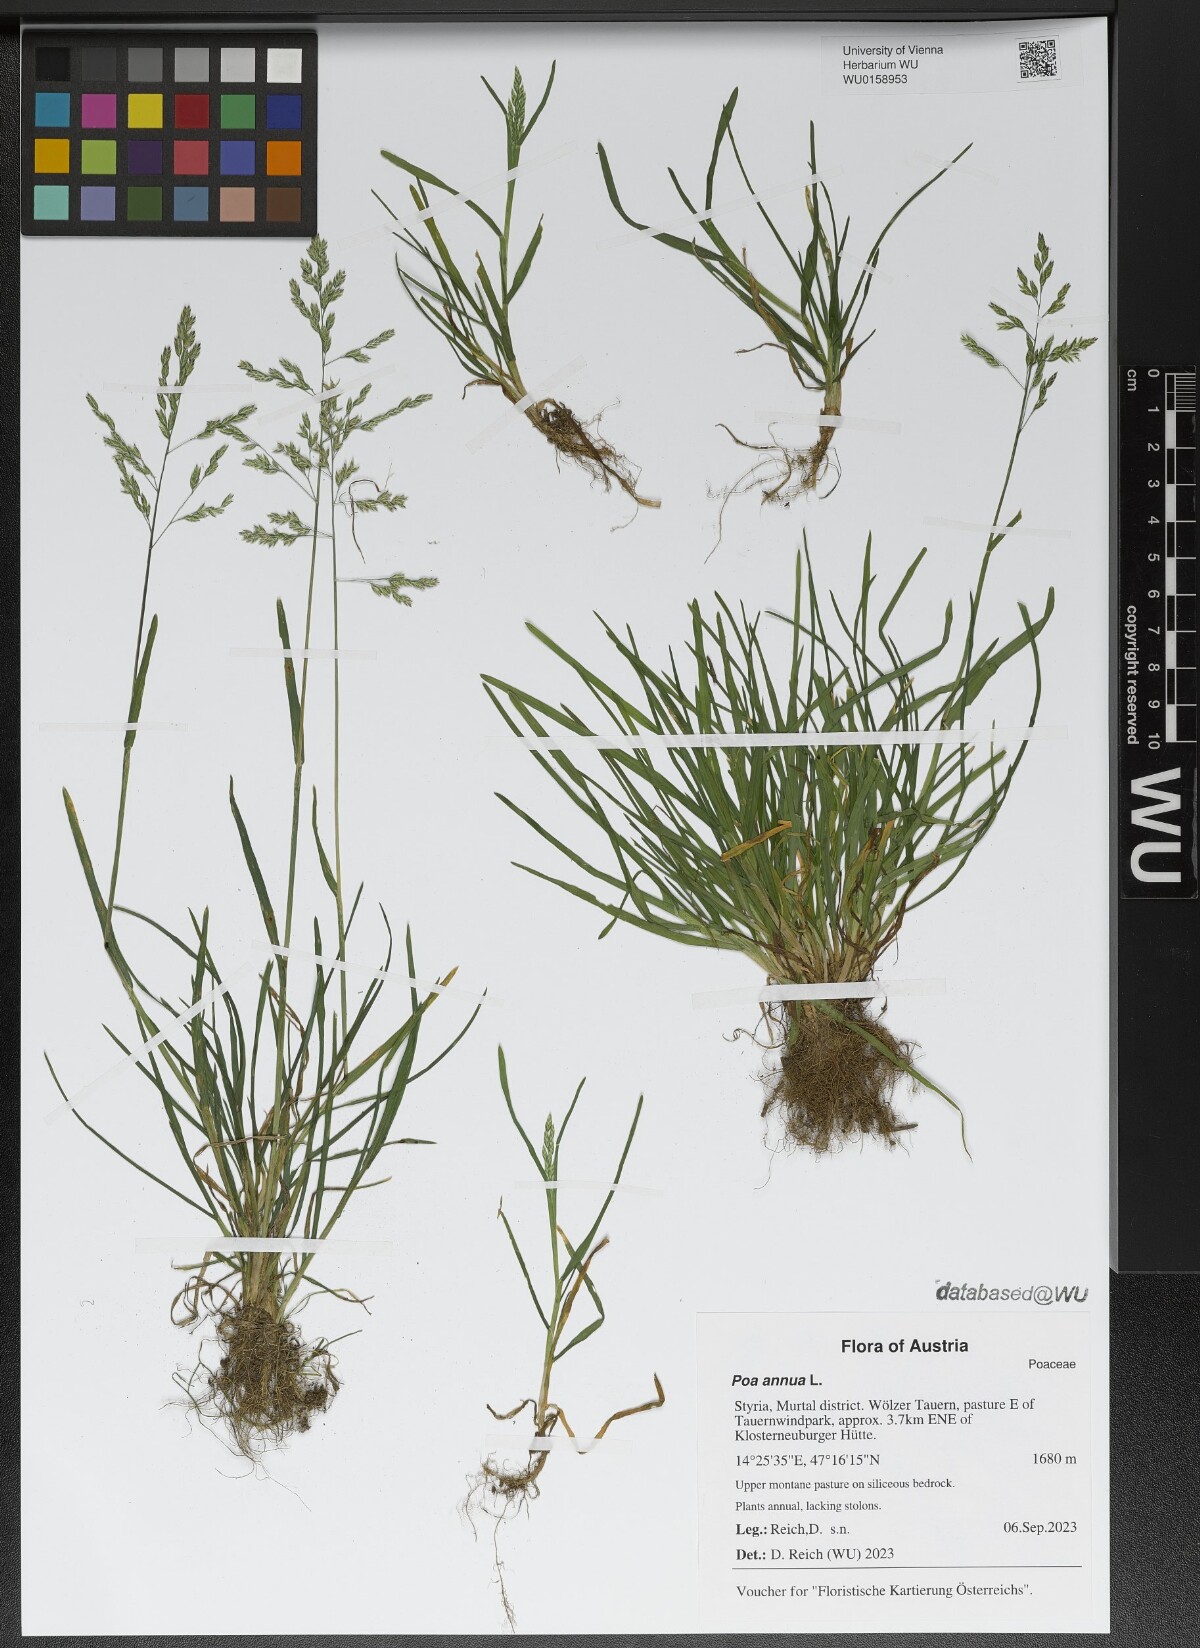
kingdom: Plantae
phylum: Tracheophyta
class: Liliopsida
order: Poales
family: Poaceae
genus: Poa
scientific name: Poa annua
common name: Annual bluegrass
